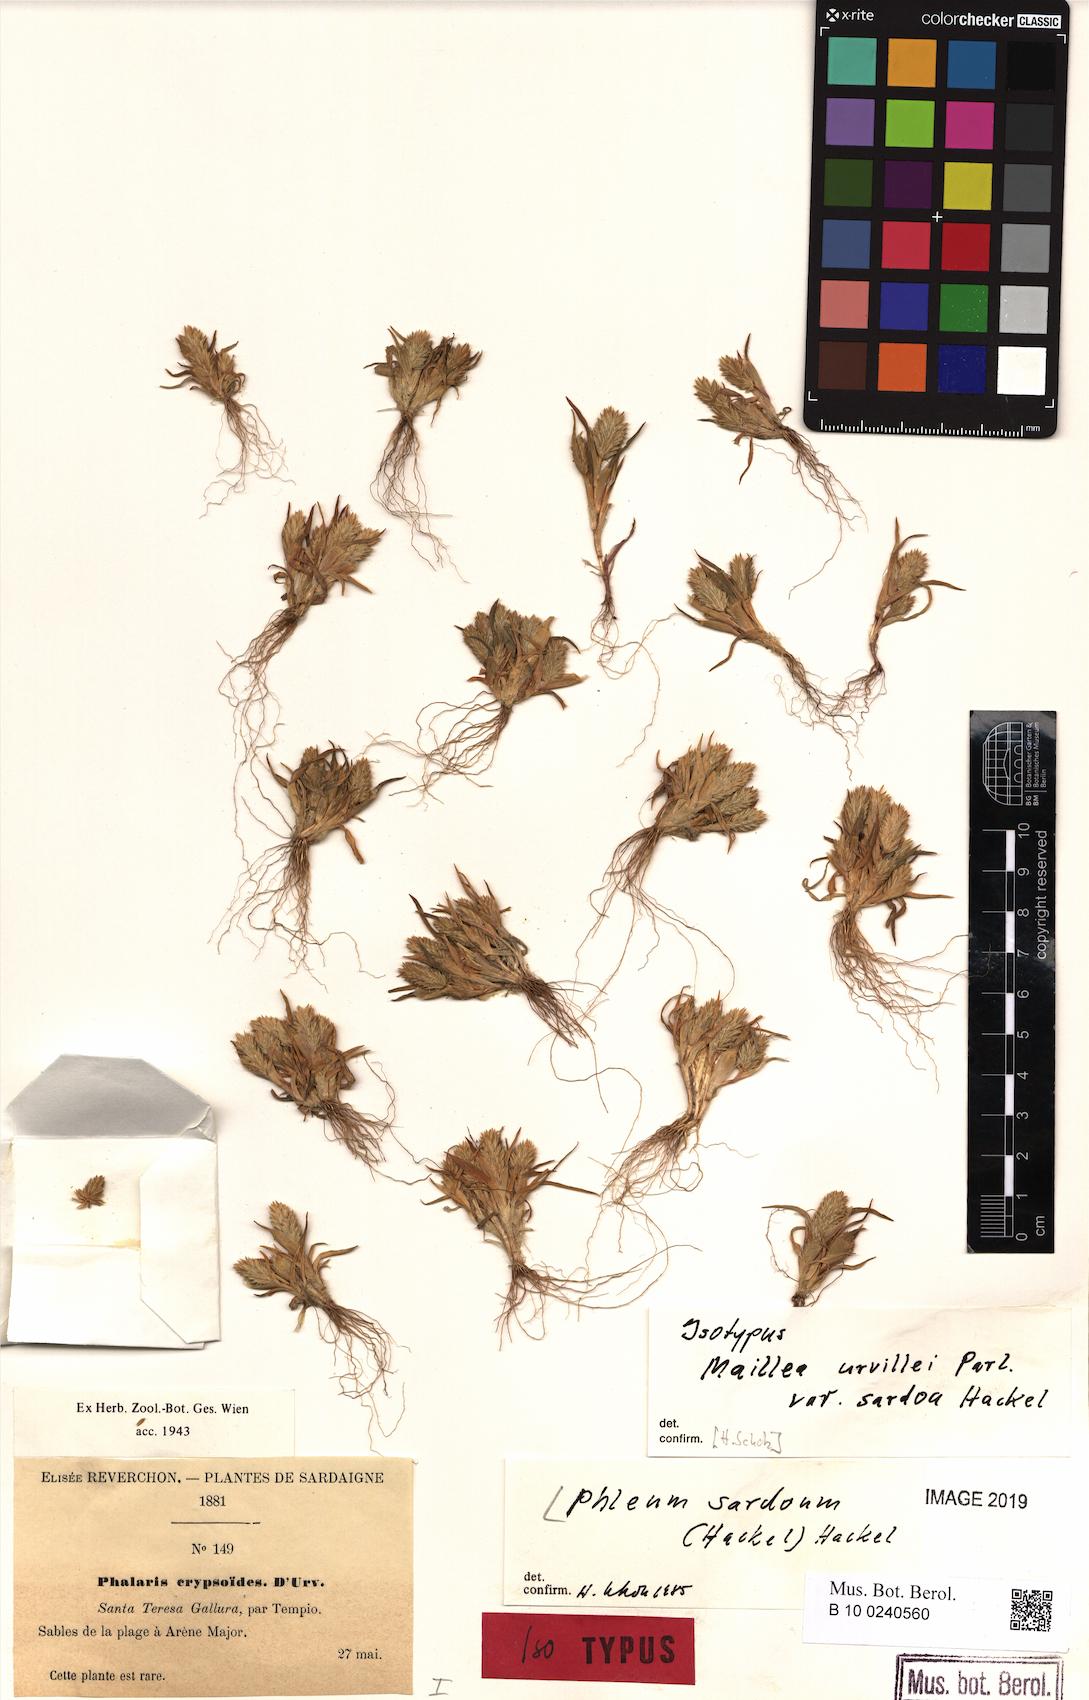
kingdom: Plantae
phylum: Tracheophyta
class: Liliopsida
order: Poales
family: Poaceae
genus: Phleum
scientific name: Phleum crypsoides
